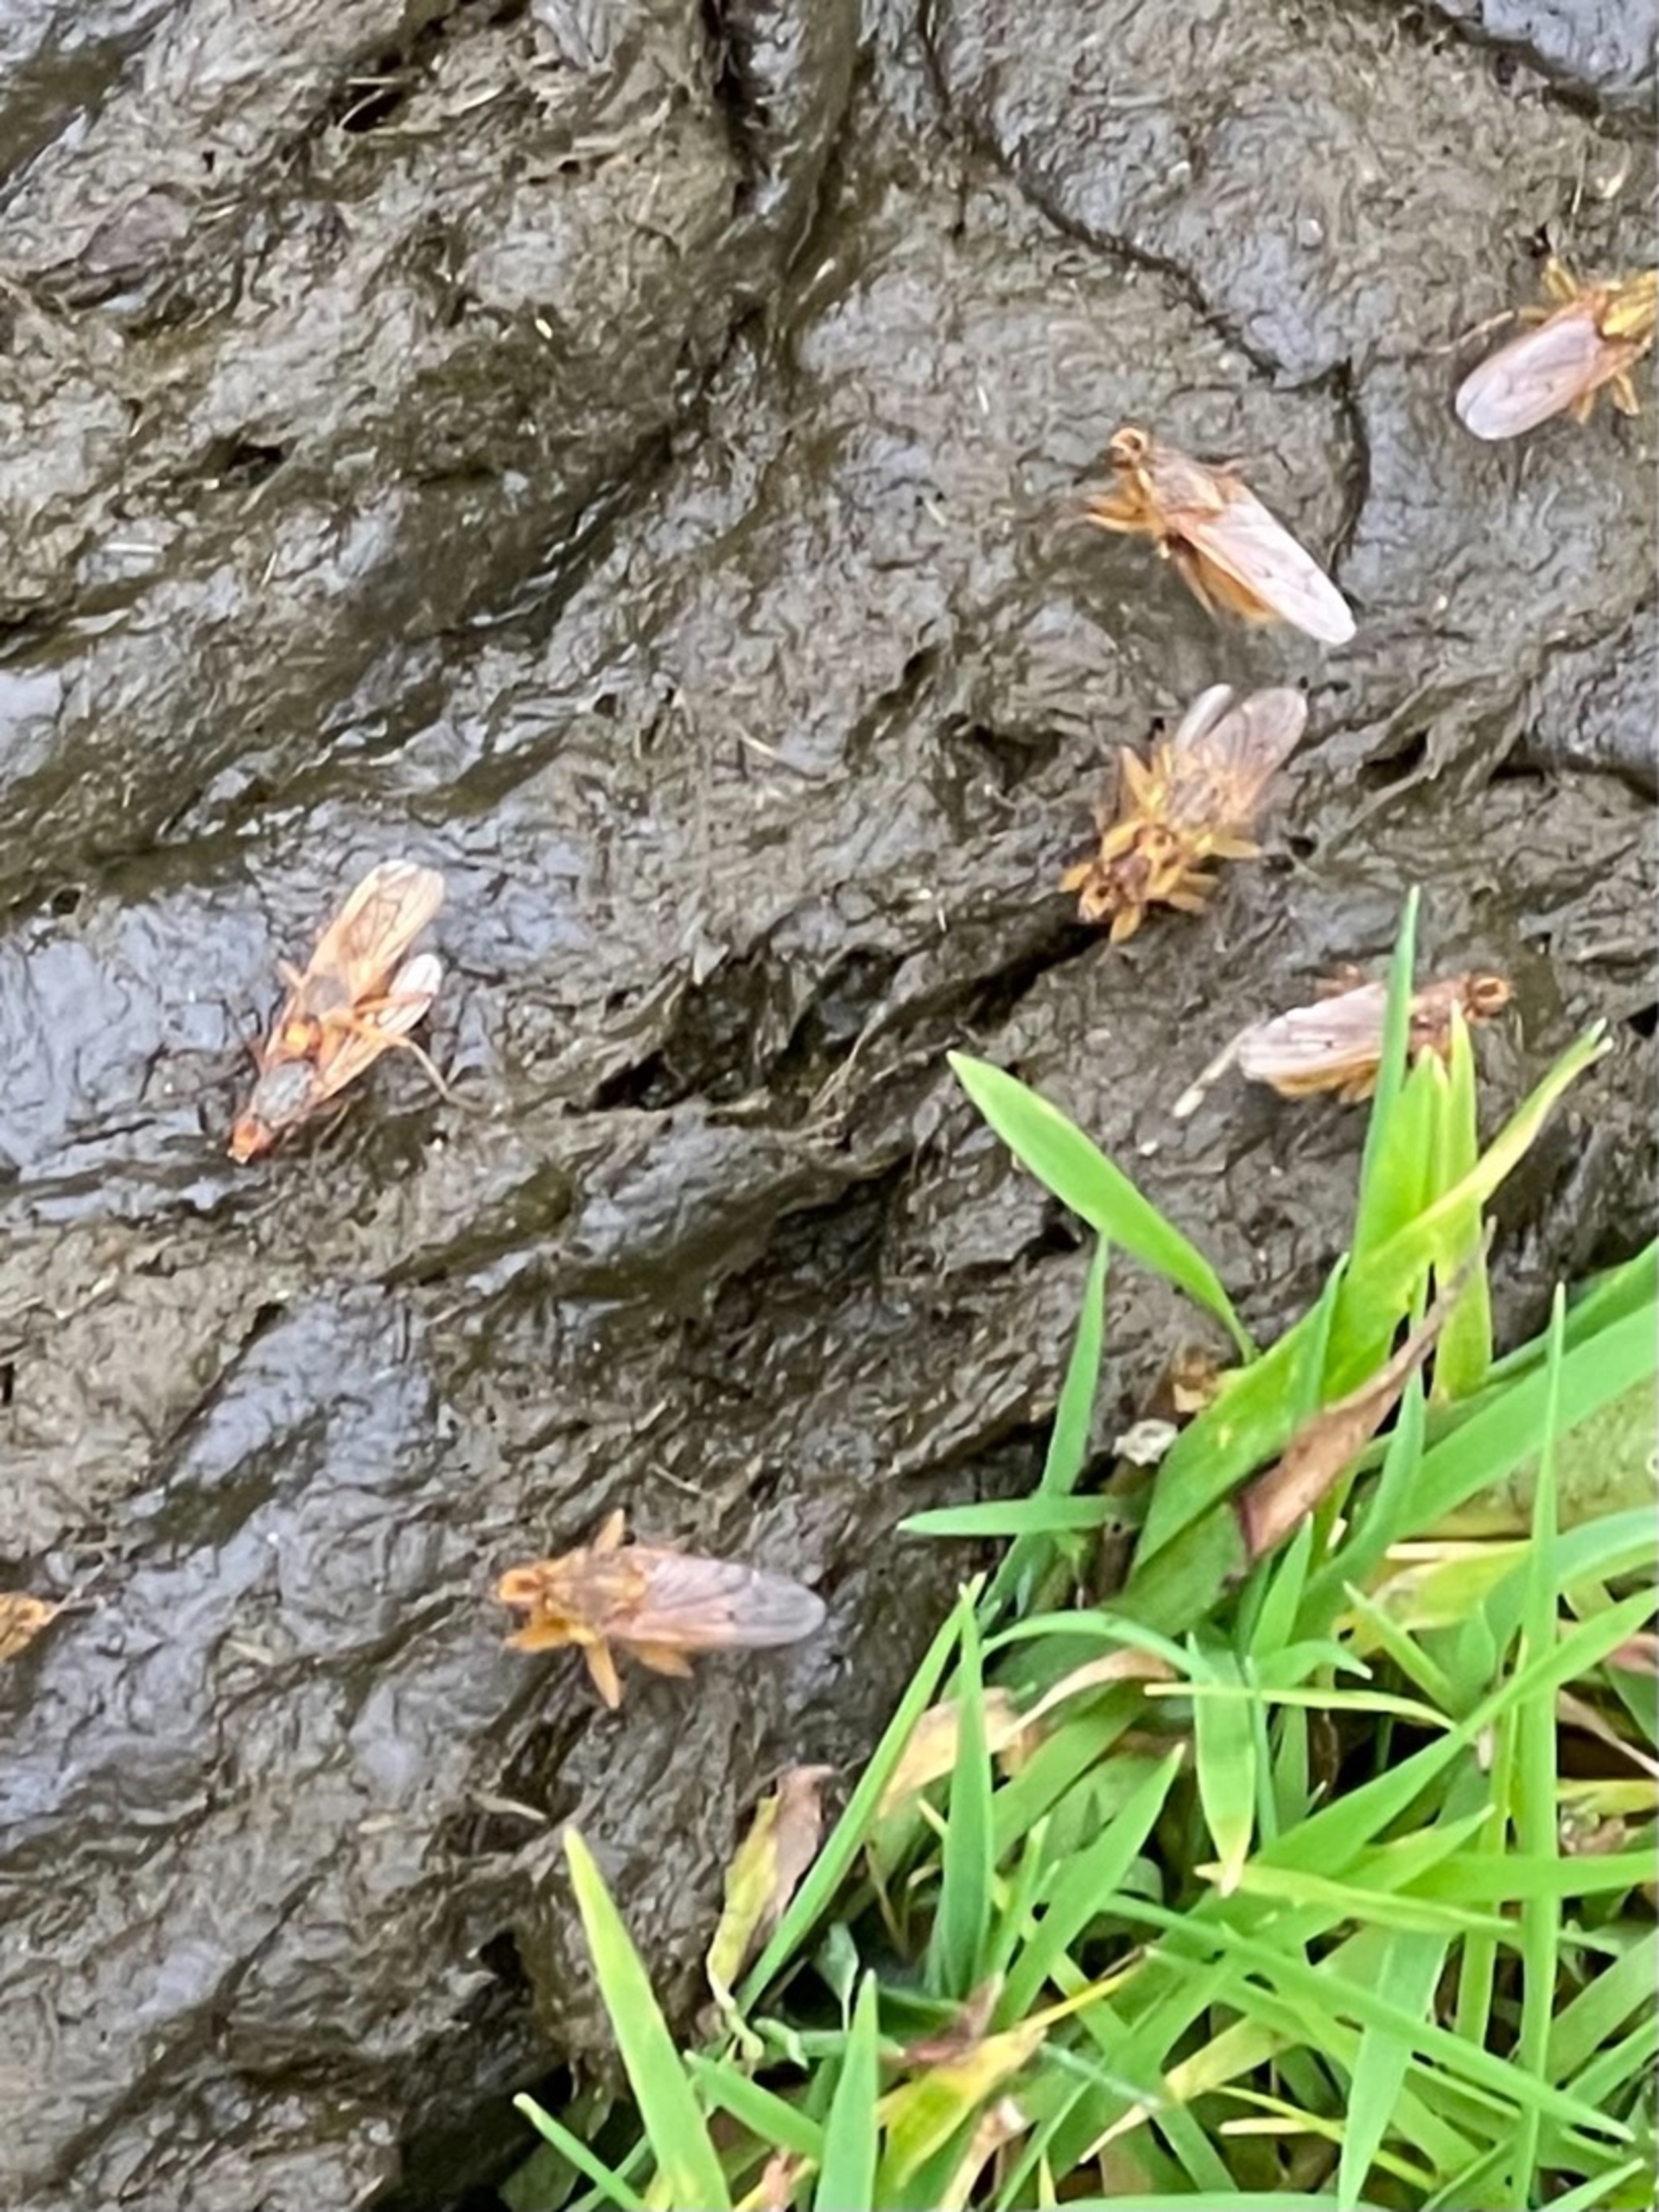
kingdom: Animalia
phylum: Arthropoda
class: Insecta
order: Diptera
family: Scathophagidae
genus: Scathophaga
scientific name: Scathophaga stercoraria
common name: Almindelig gødningsflue
